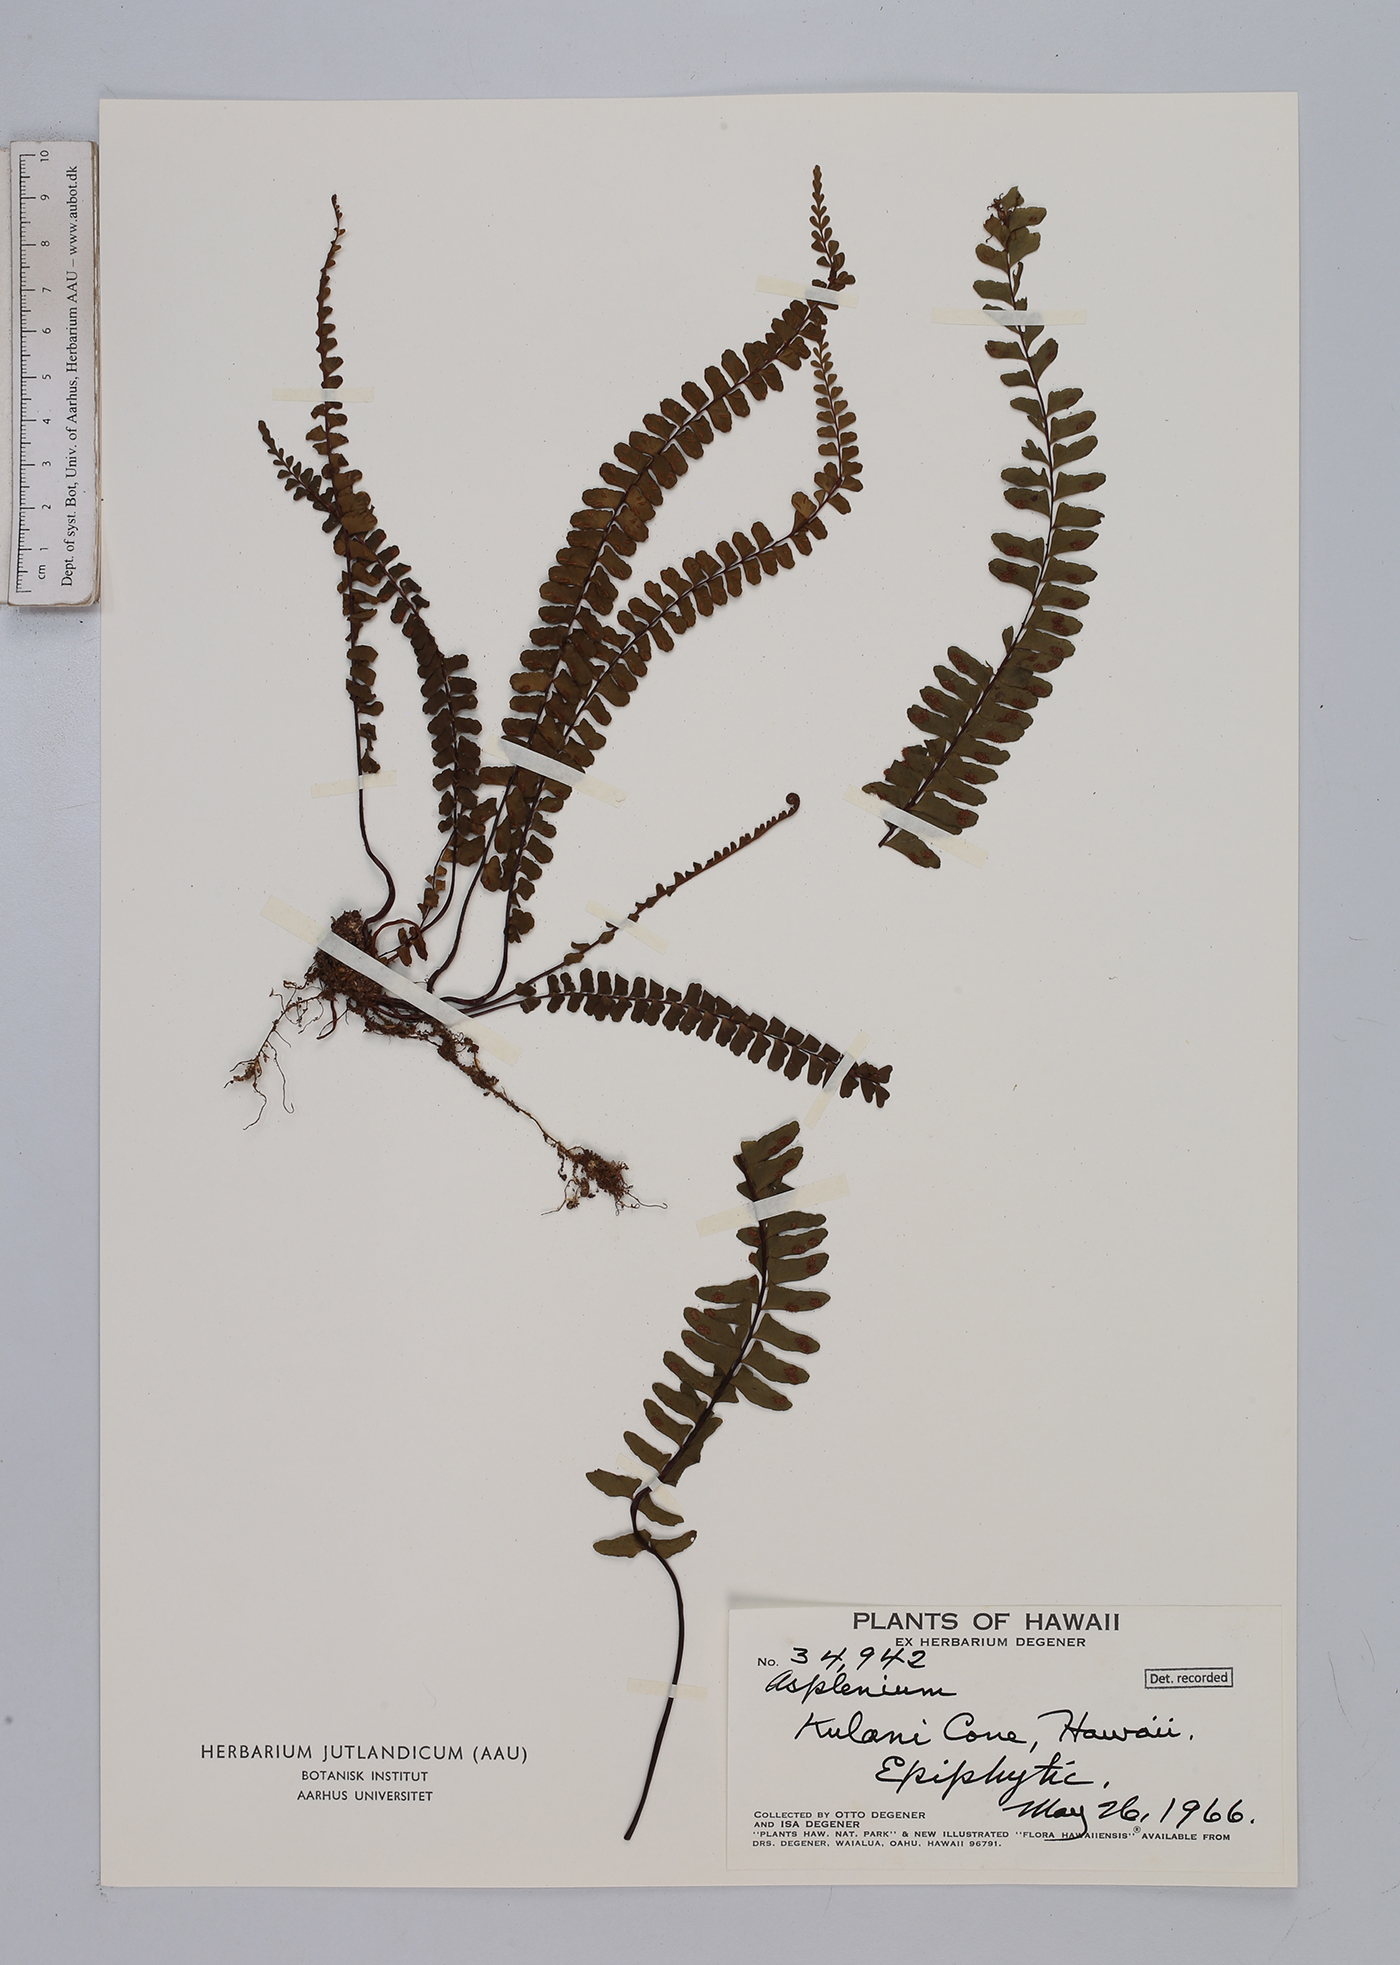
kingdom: Plantae
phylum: Tracheophyta
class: Polypodiopsida
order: Polypodiales
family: Aspleniaceae
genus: Asplenium
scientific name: Asplenium
